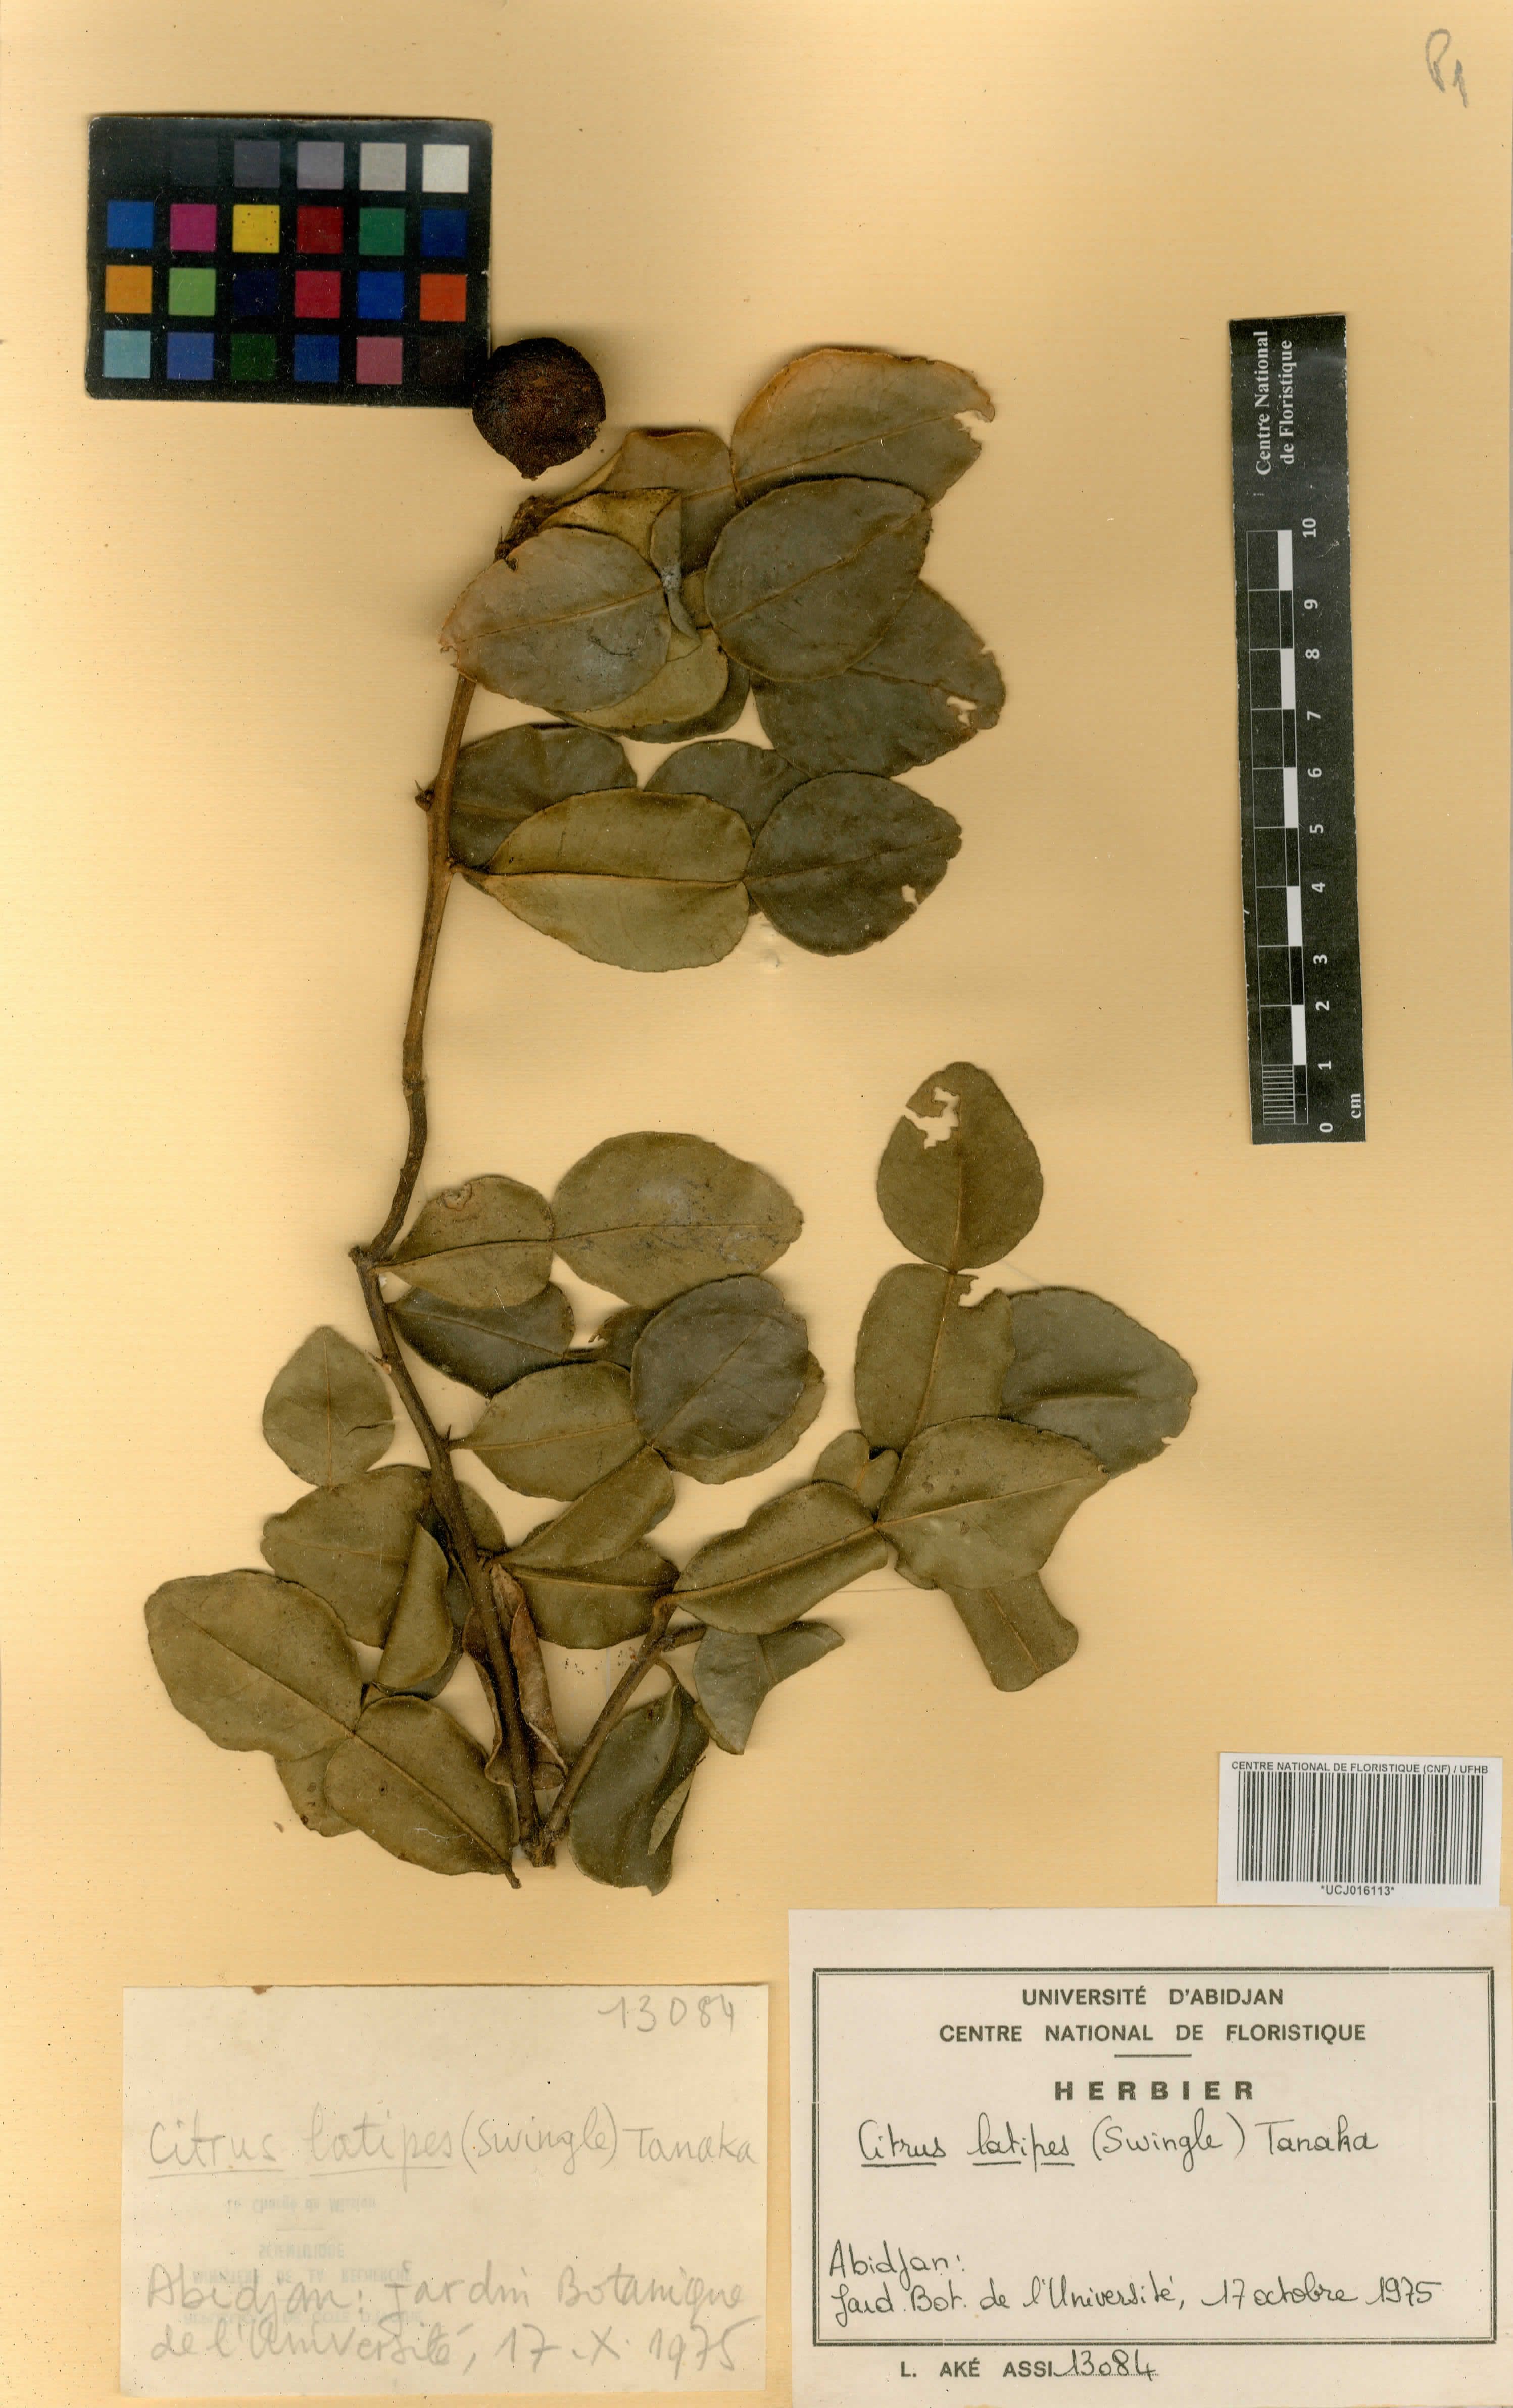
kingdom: Plantae
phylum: Tracheophyta
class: Magnoliopsida
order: Sapindales
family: Rutaceae
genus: Citrus
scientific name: Citrus aurantium
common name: Sour orange
